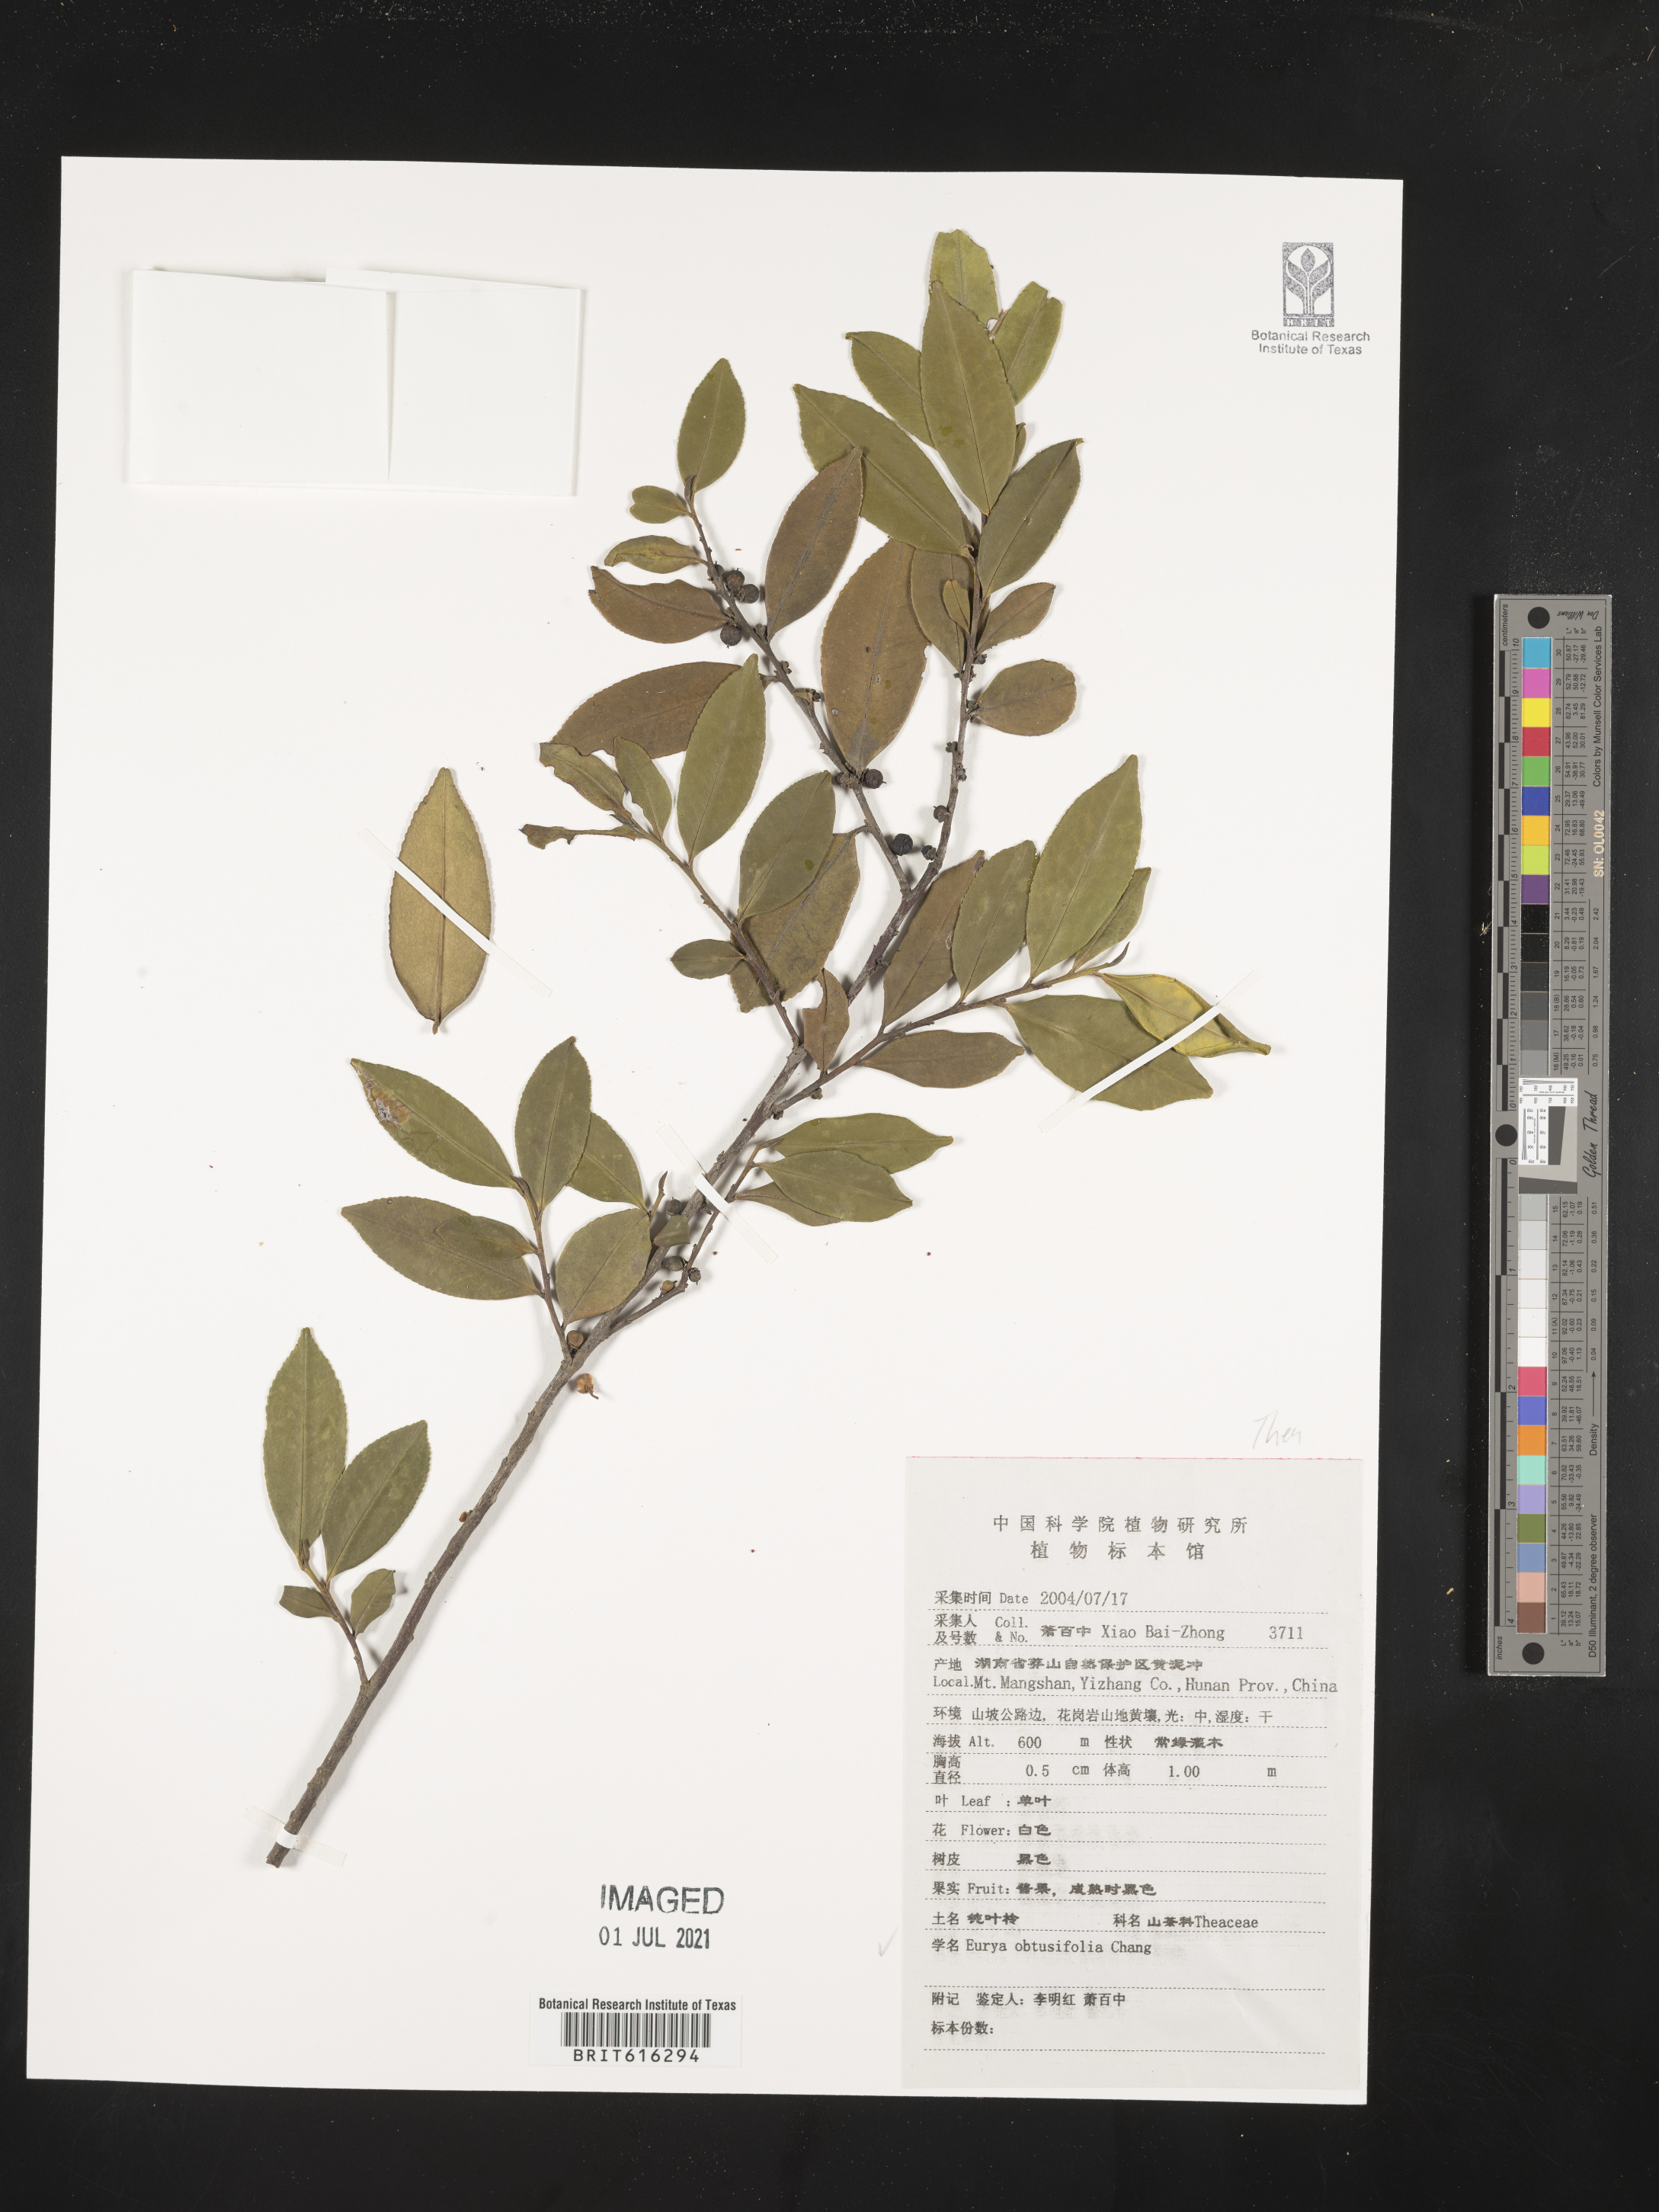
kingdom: Plantae
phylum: Tracheophyta
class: Magnoliopsida
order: Ericales
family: Pentaphylacaceae
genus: Eurya
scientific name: Eurya obtusifolia
